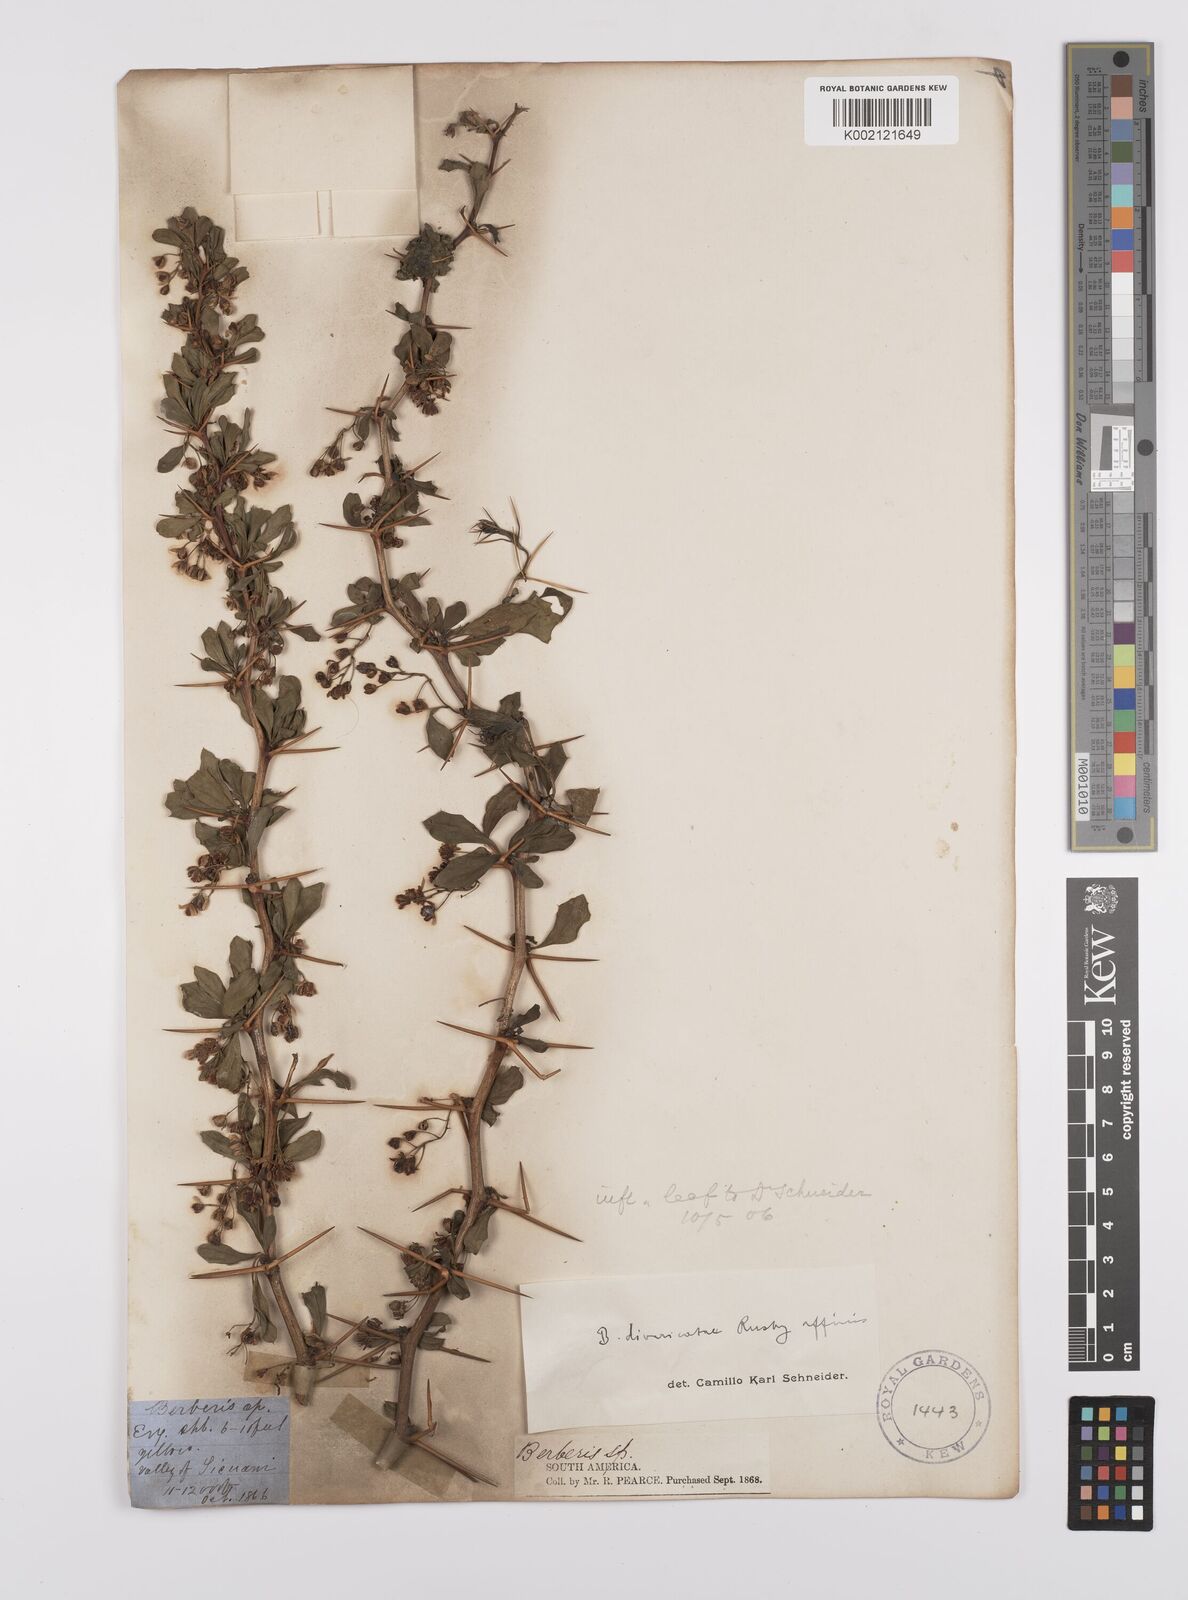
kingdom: Plantae
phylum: Tracheophyta
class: Magnoliopsida
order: Ranunculales
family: Berberidaceae
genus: Berberis
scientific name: Berberis commutata
